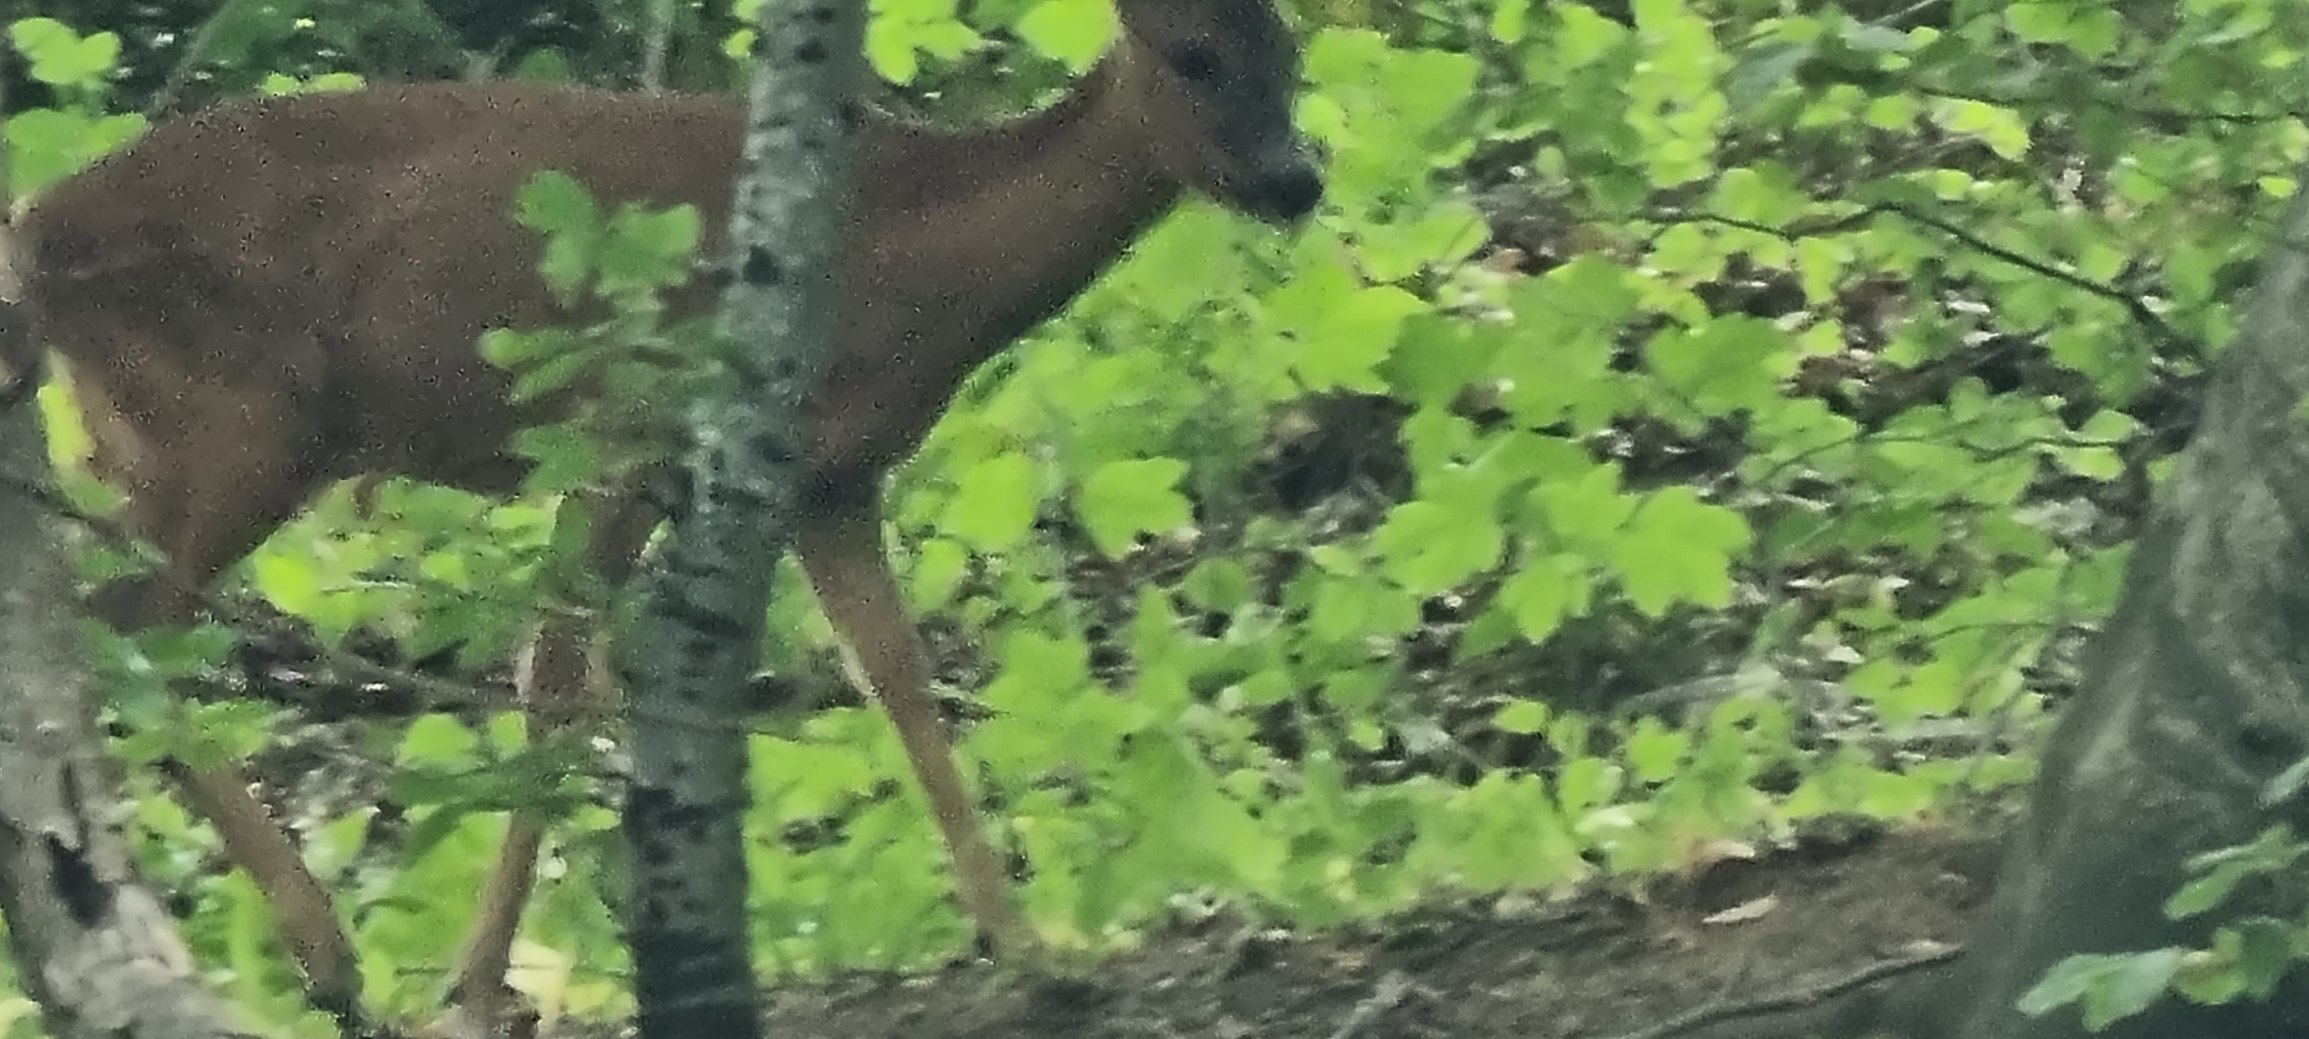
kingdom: Animalia
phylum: Chordata
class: Mammalia
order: Artiodactyla
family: Cervidae
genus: Capreolus
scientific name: Capreolus capreolus
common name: Rådyr
